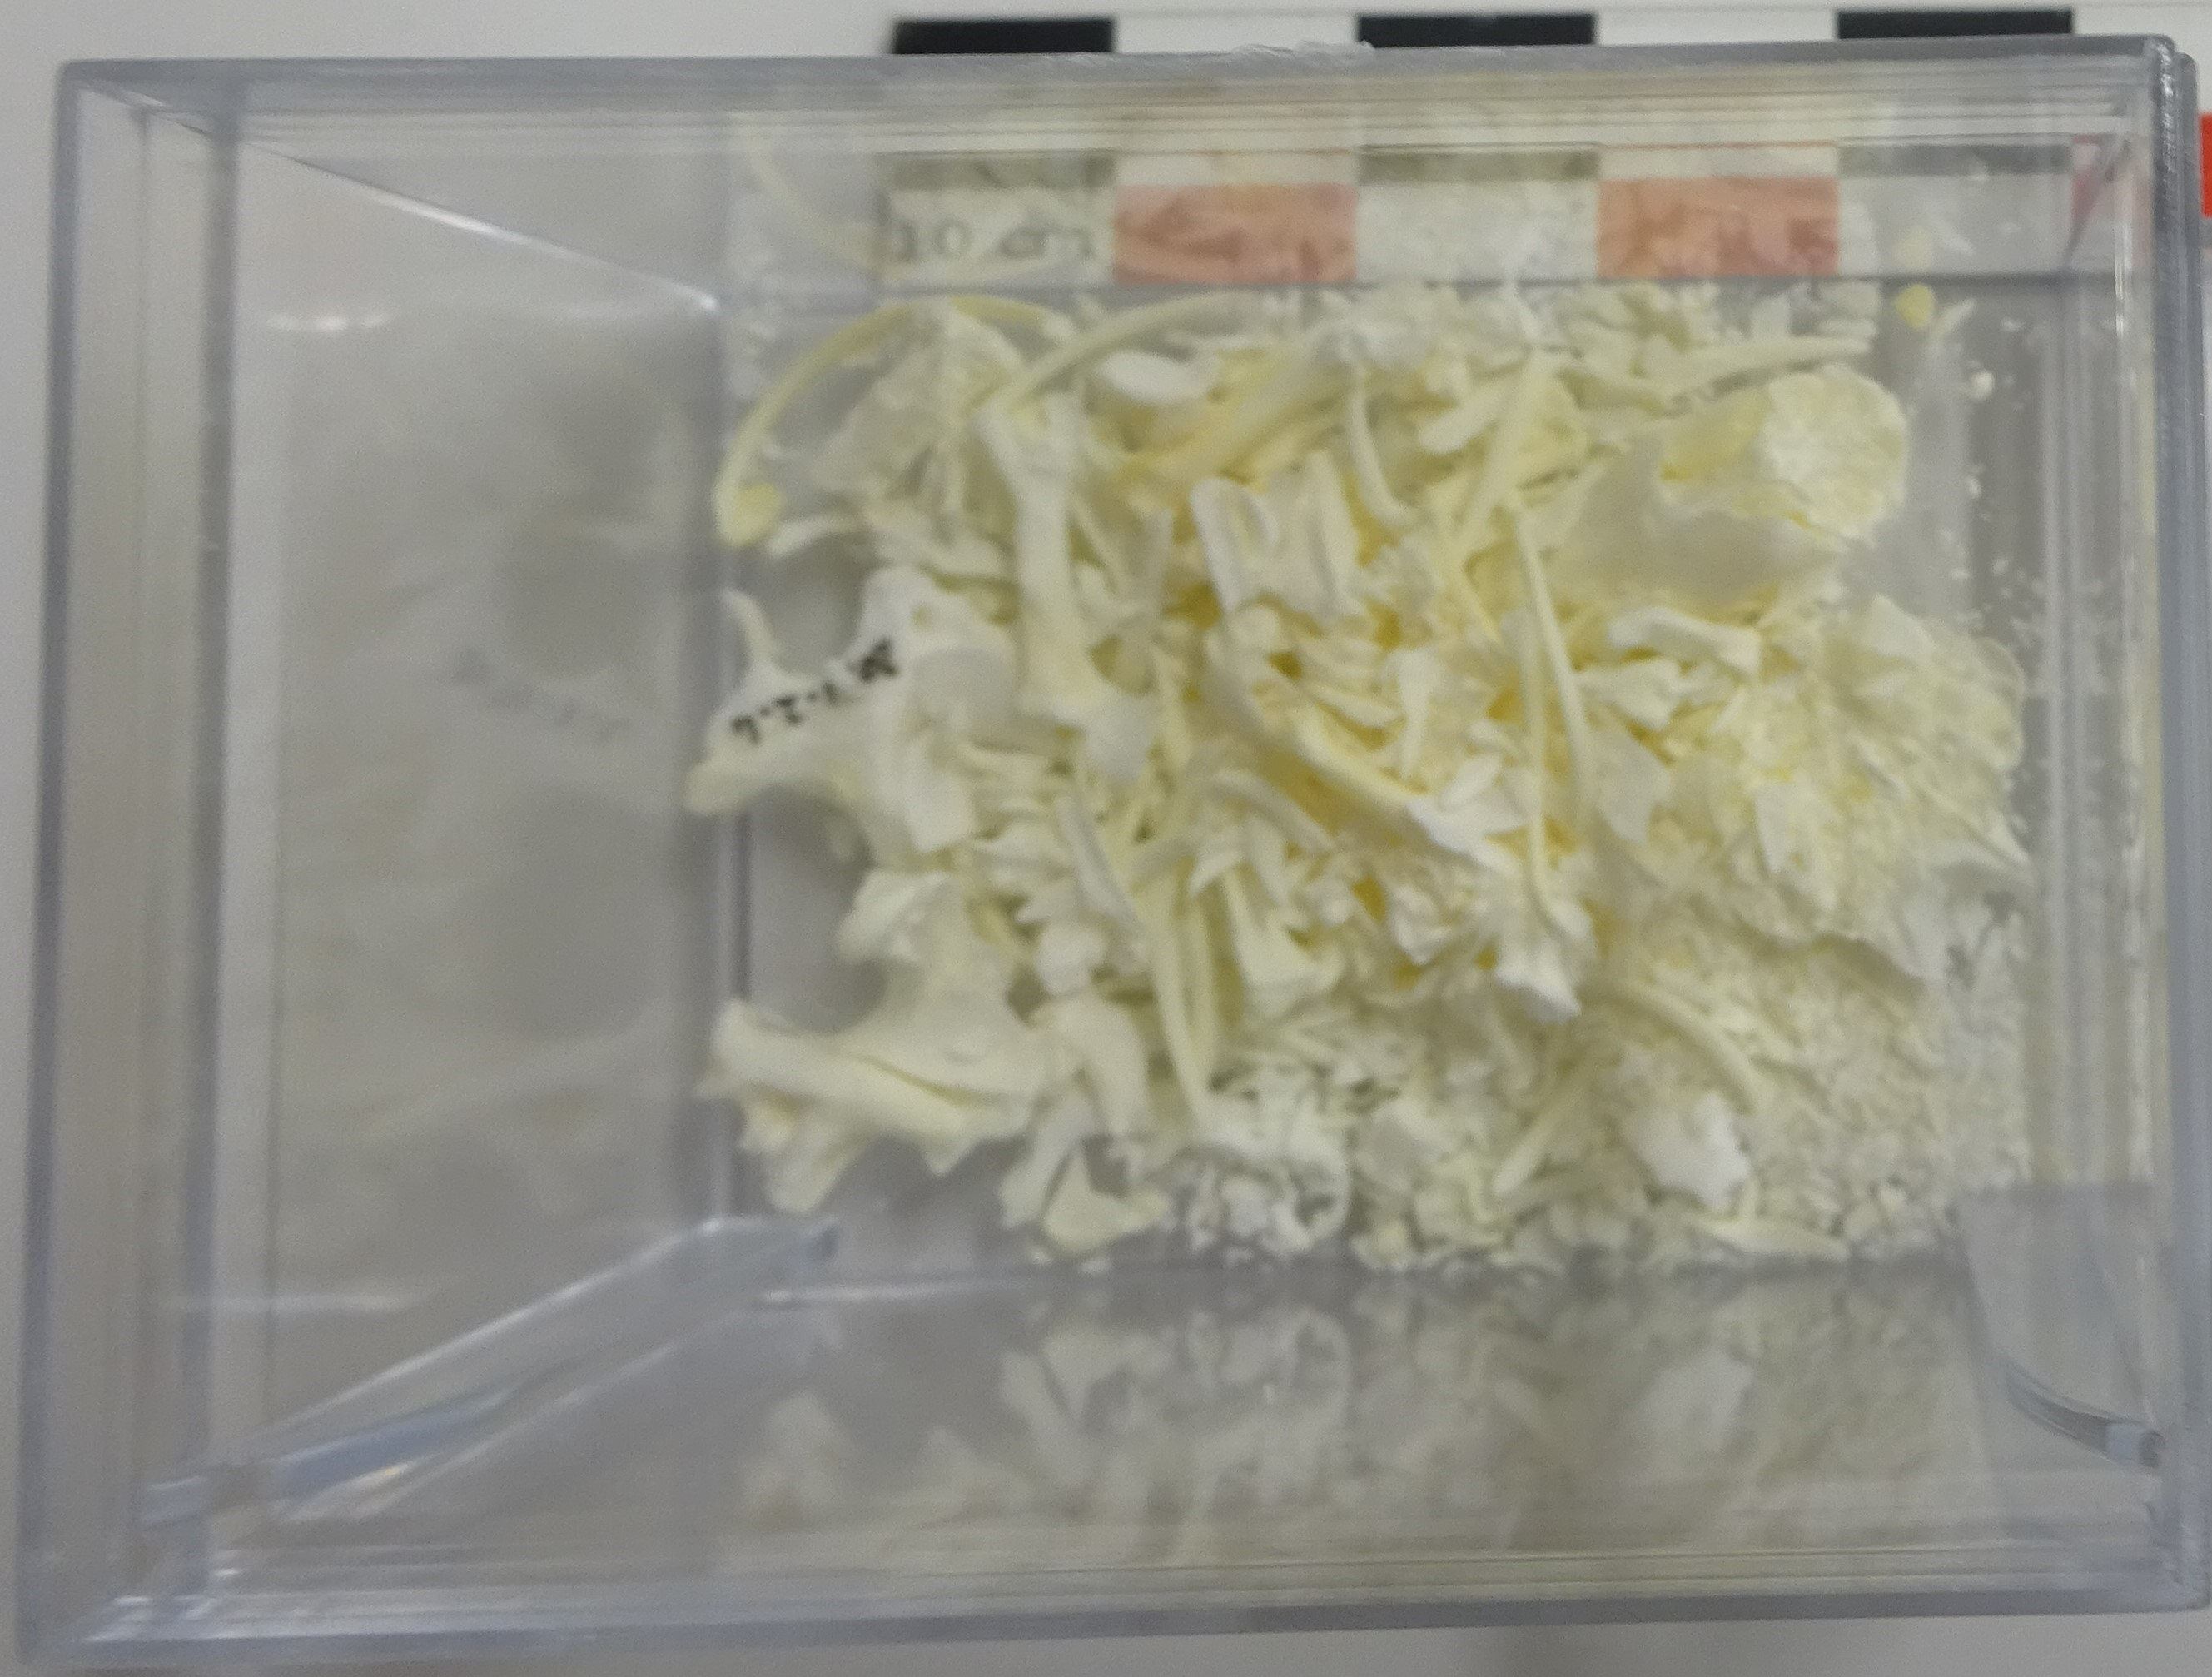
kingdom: Animalia
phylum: Chordata
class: Mammalia
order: Soricomorpha
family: Talpidae
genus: Talpa
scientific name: Talpa europaea
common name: European mole
